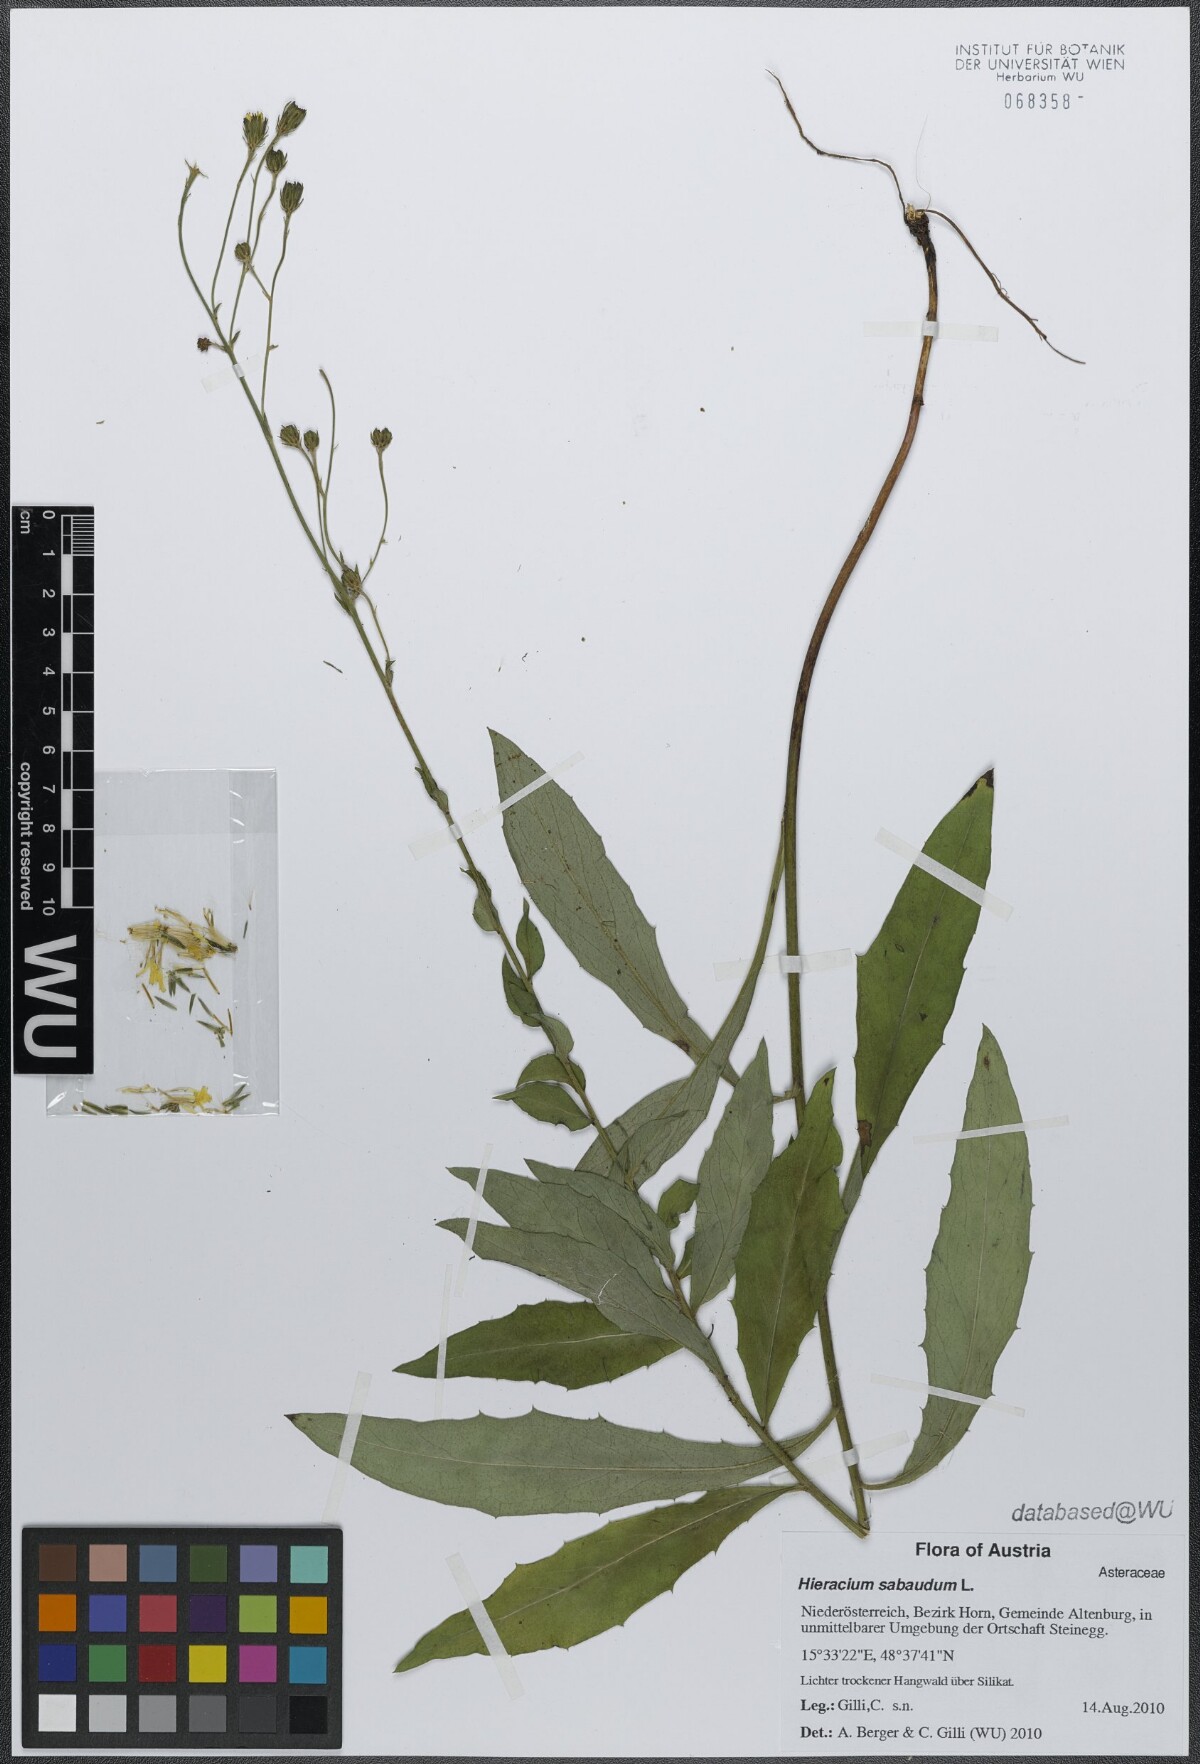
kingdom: Plantae
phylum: Tracheophyta
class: Magnoliopsida
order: Asterales
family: Asteraceae
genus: Hieracium
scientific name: Hieracium sabaudum
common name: New england hawkweed
